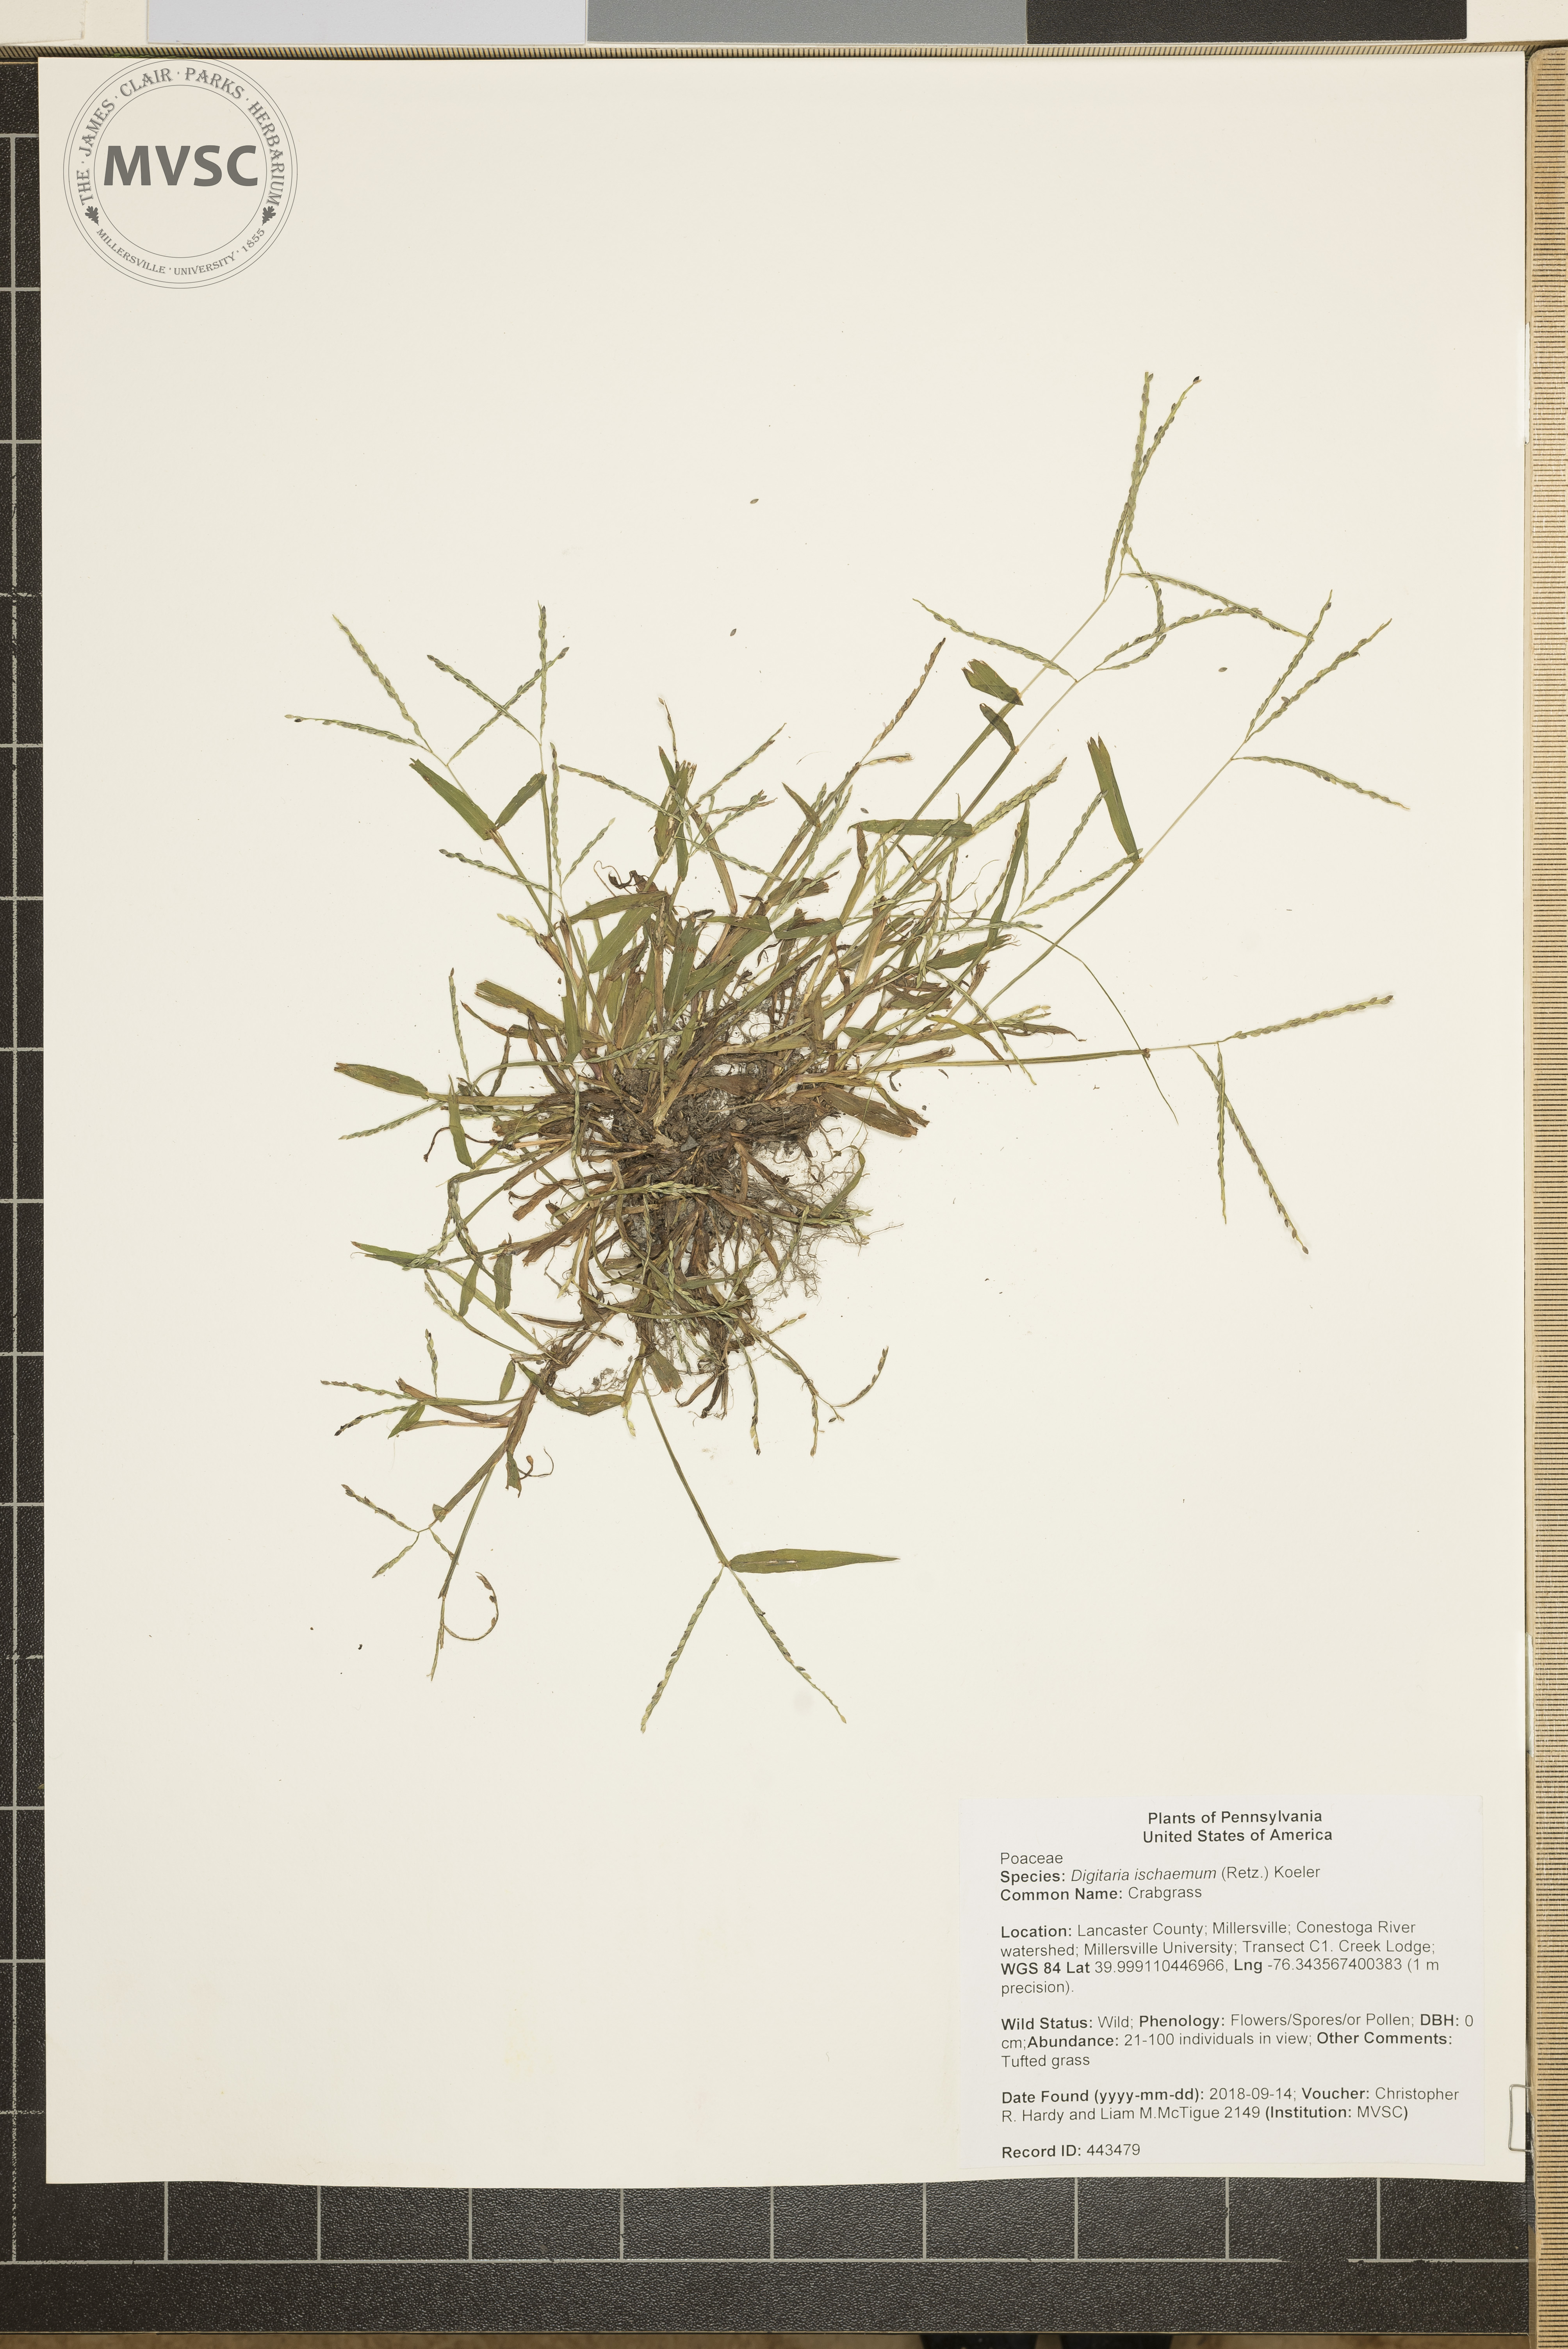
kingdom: Plantae
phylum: Tracheophyta
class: Liliopsida
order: Poales
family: Poaceae
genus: Digitaria
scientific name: Digitaria ischaemum
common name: Crabgrass
